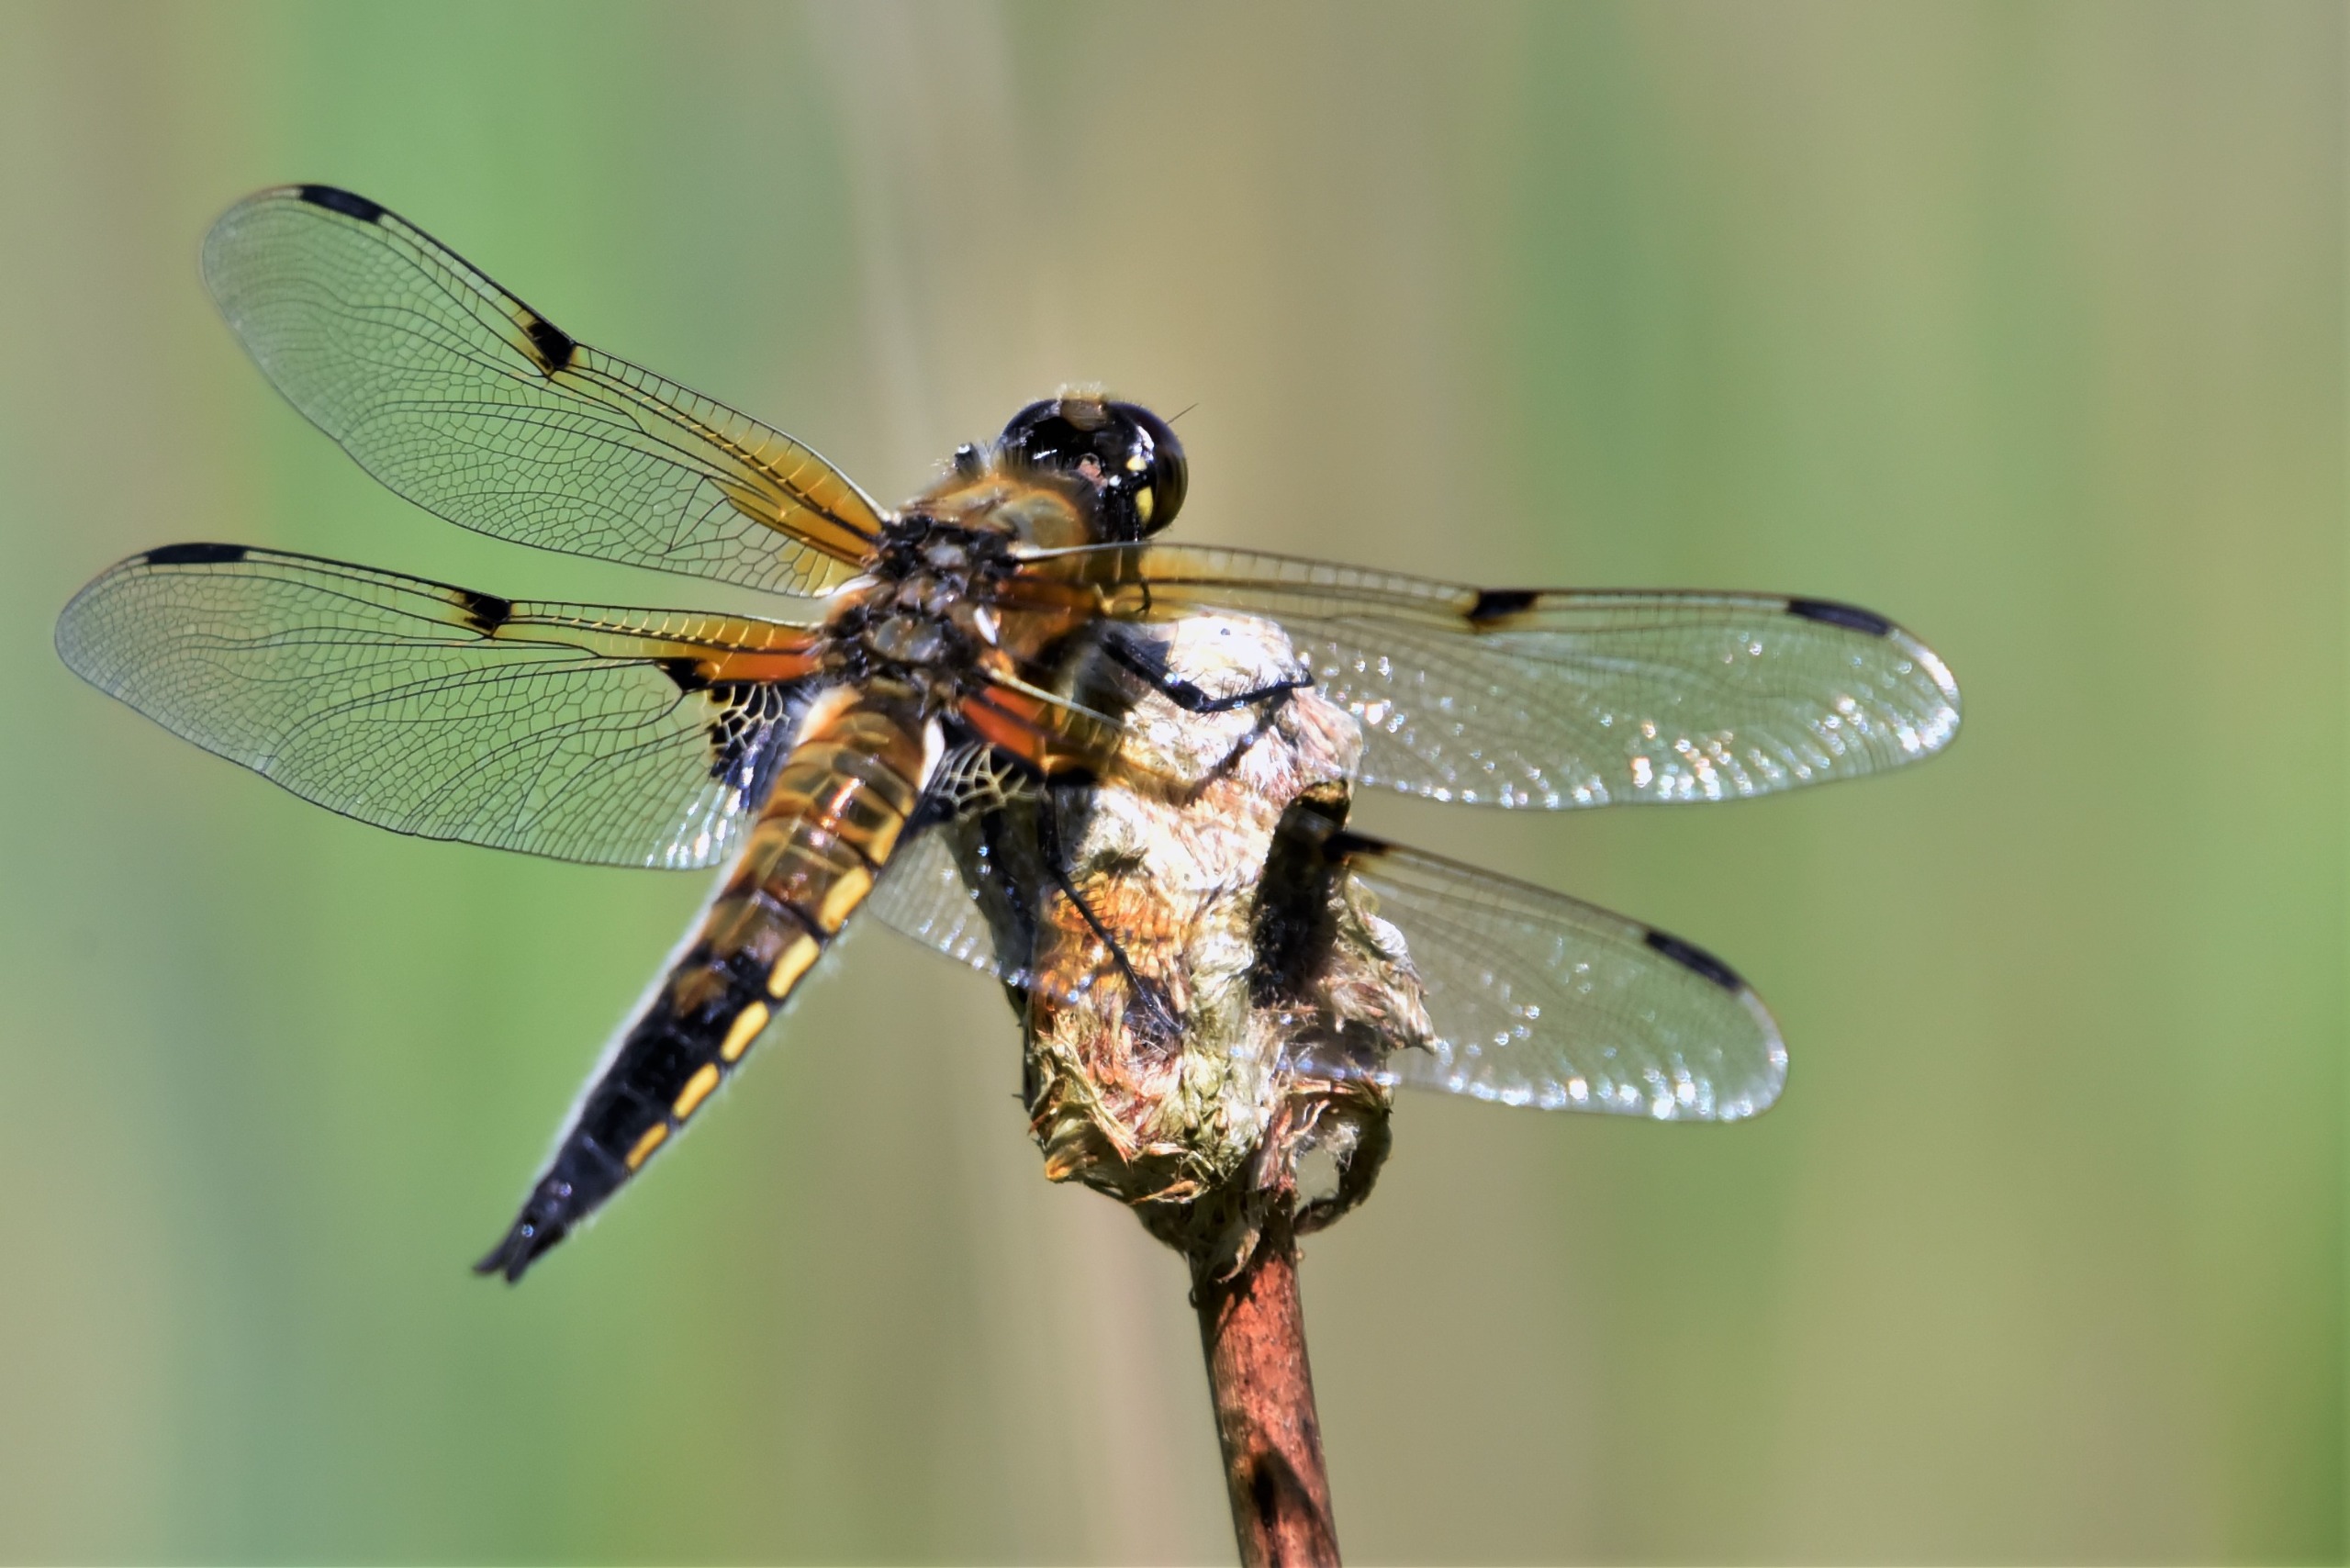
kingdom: Animalia
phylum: Arthropoda
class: Insecta
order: Odonata
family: Libellulidae
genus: Libellula
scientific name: Libellula quadrimaculata
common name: Fireplettet libel
